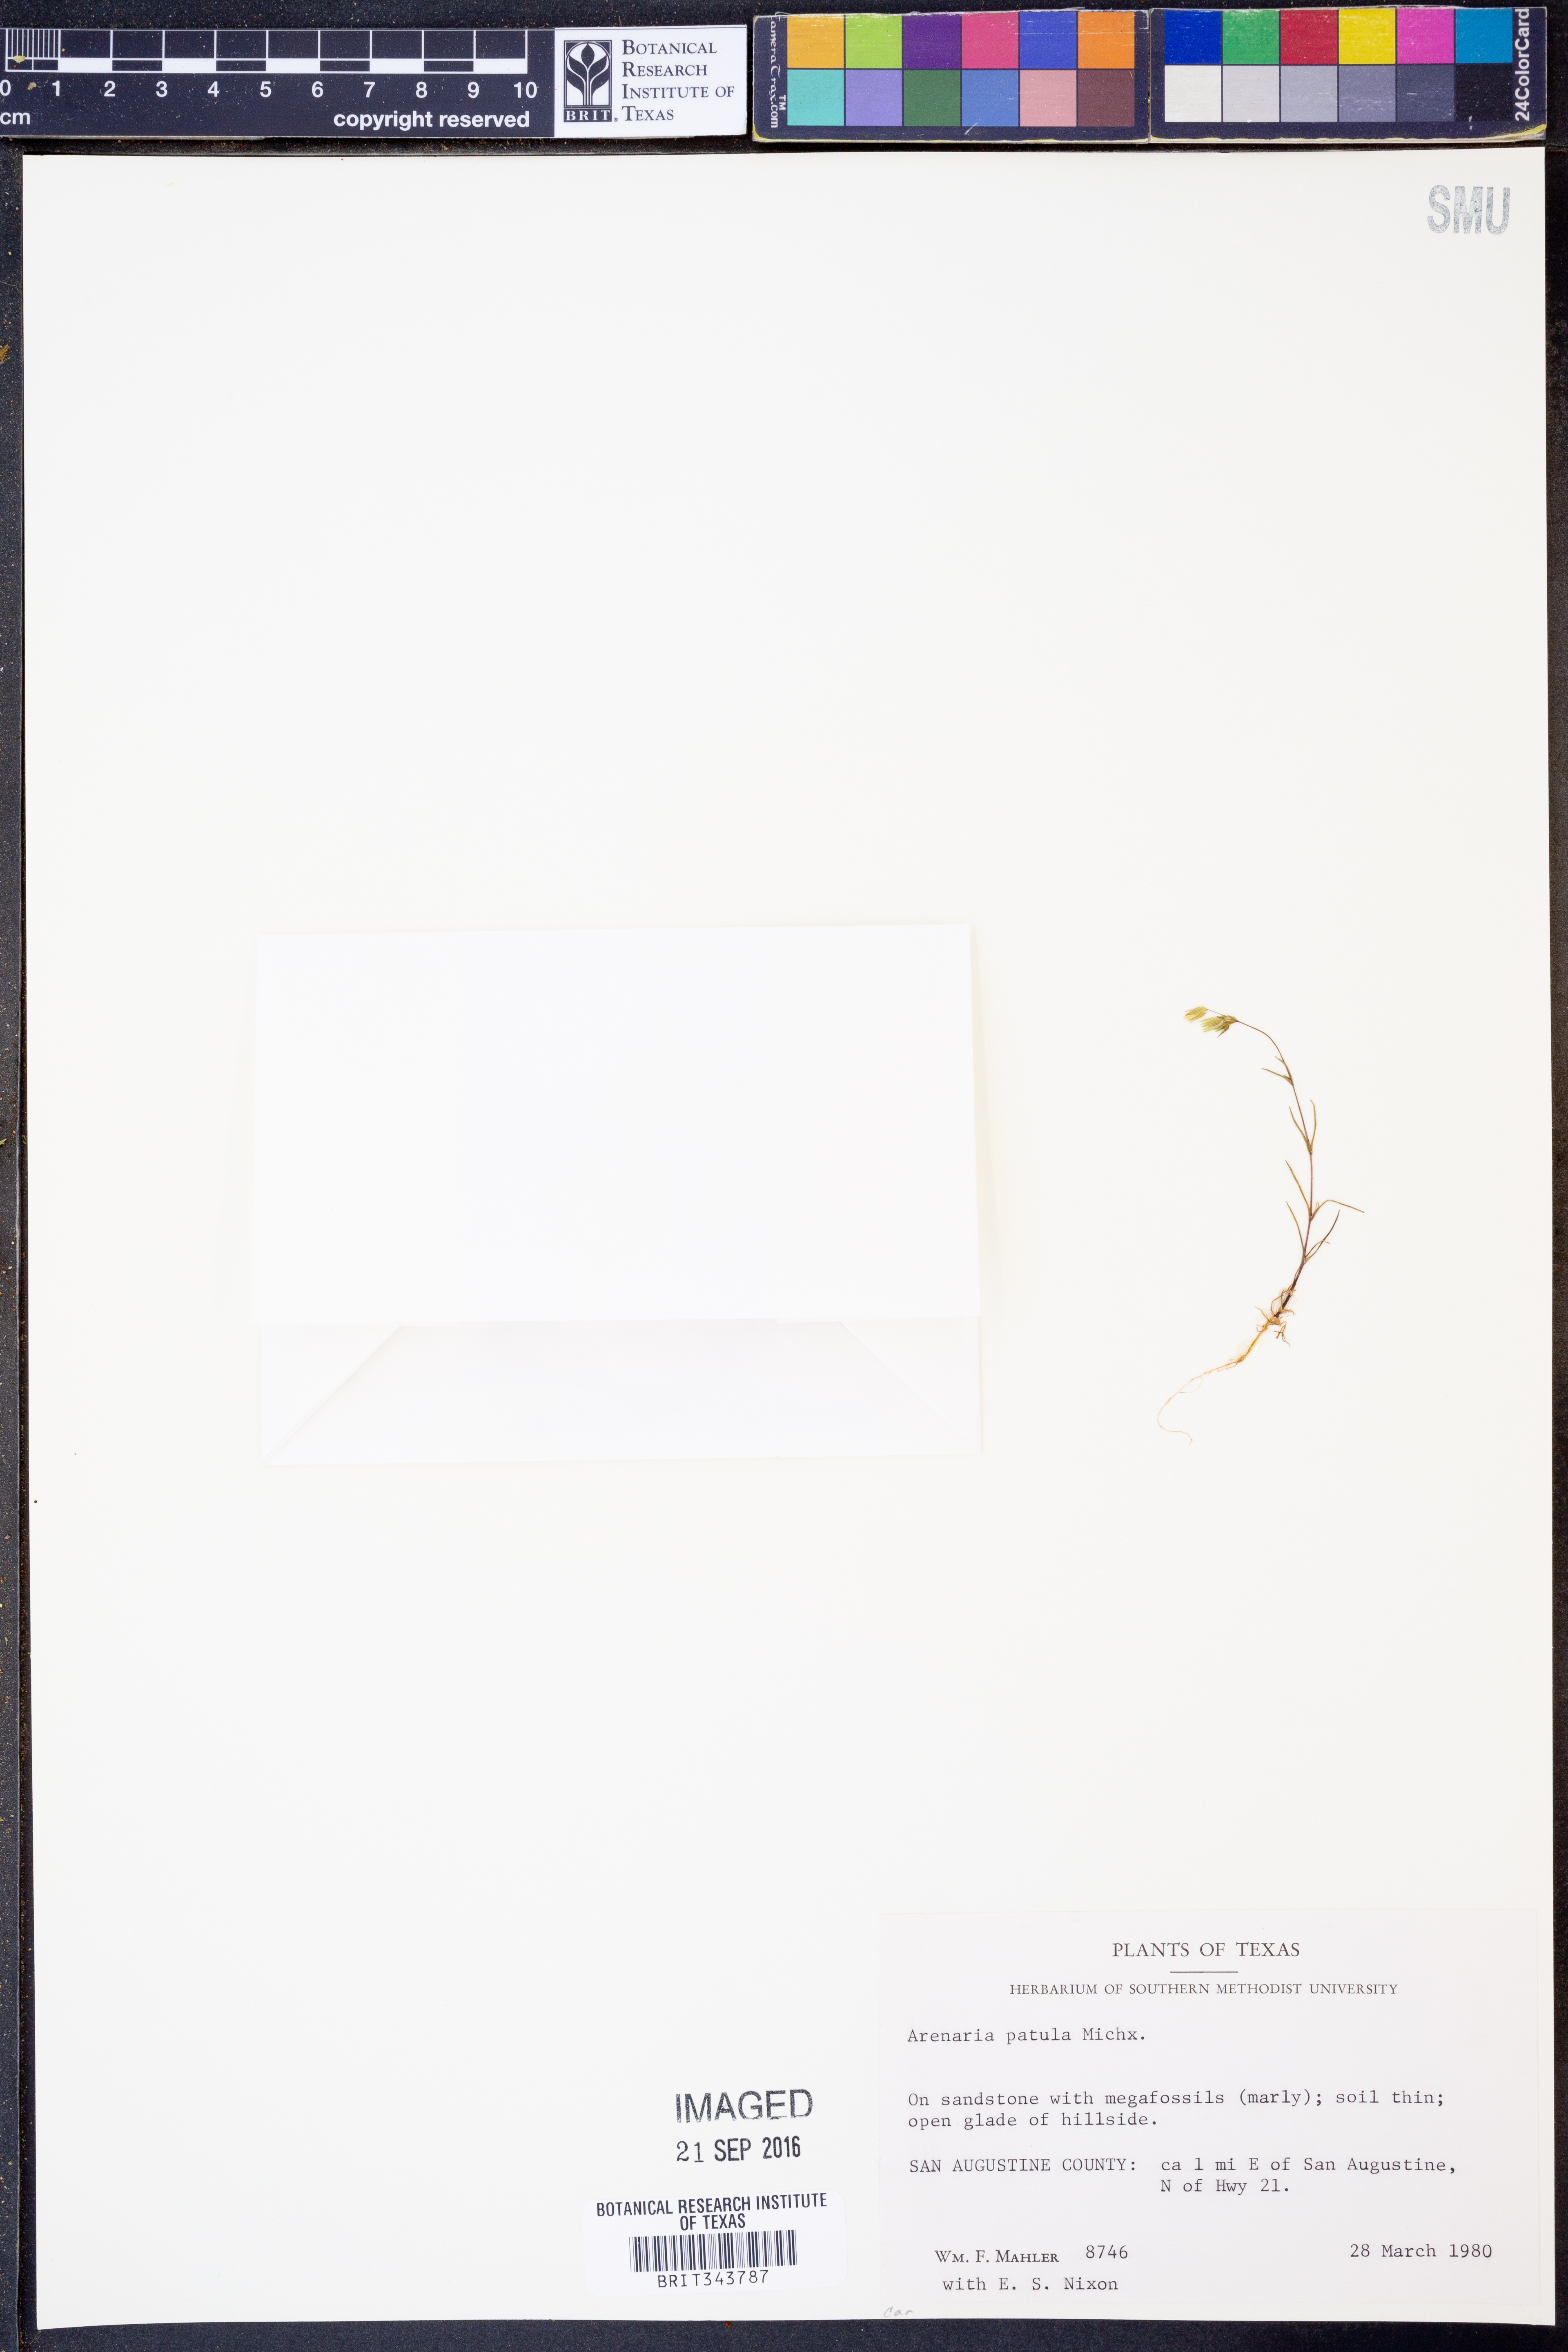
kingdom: Plantae
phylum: Tracheophyta
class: Magnoliopsida
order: Caryophyllales
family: Caryophyllaceae
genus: Mononeuria
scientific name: Mononeuria patula
